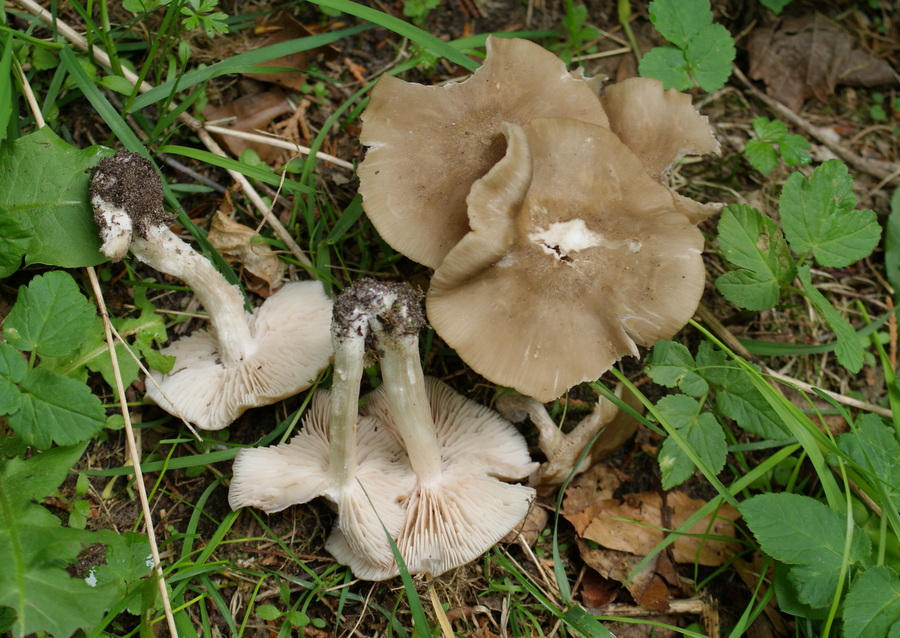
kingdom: Fungi
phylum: Basidiomycota
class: Agaricomycetes
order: Agaricales
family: Entolomataceae
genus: Entoloma
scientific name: Entoloma clypeatum
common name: flammet rødblad
